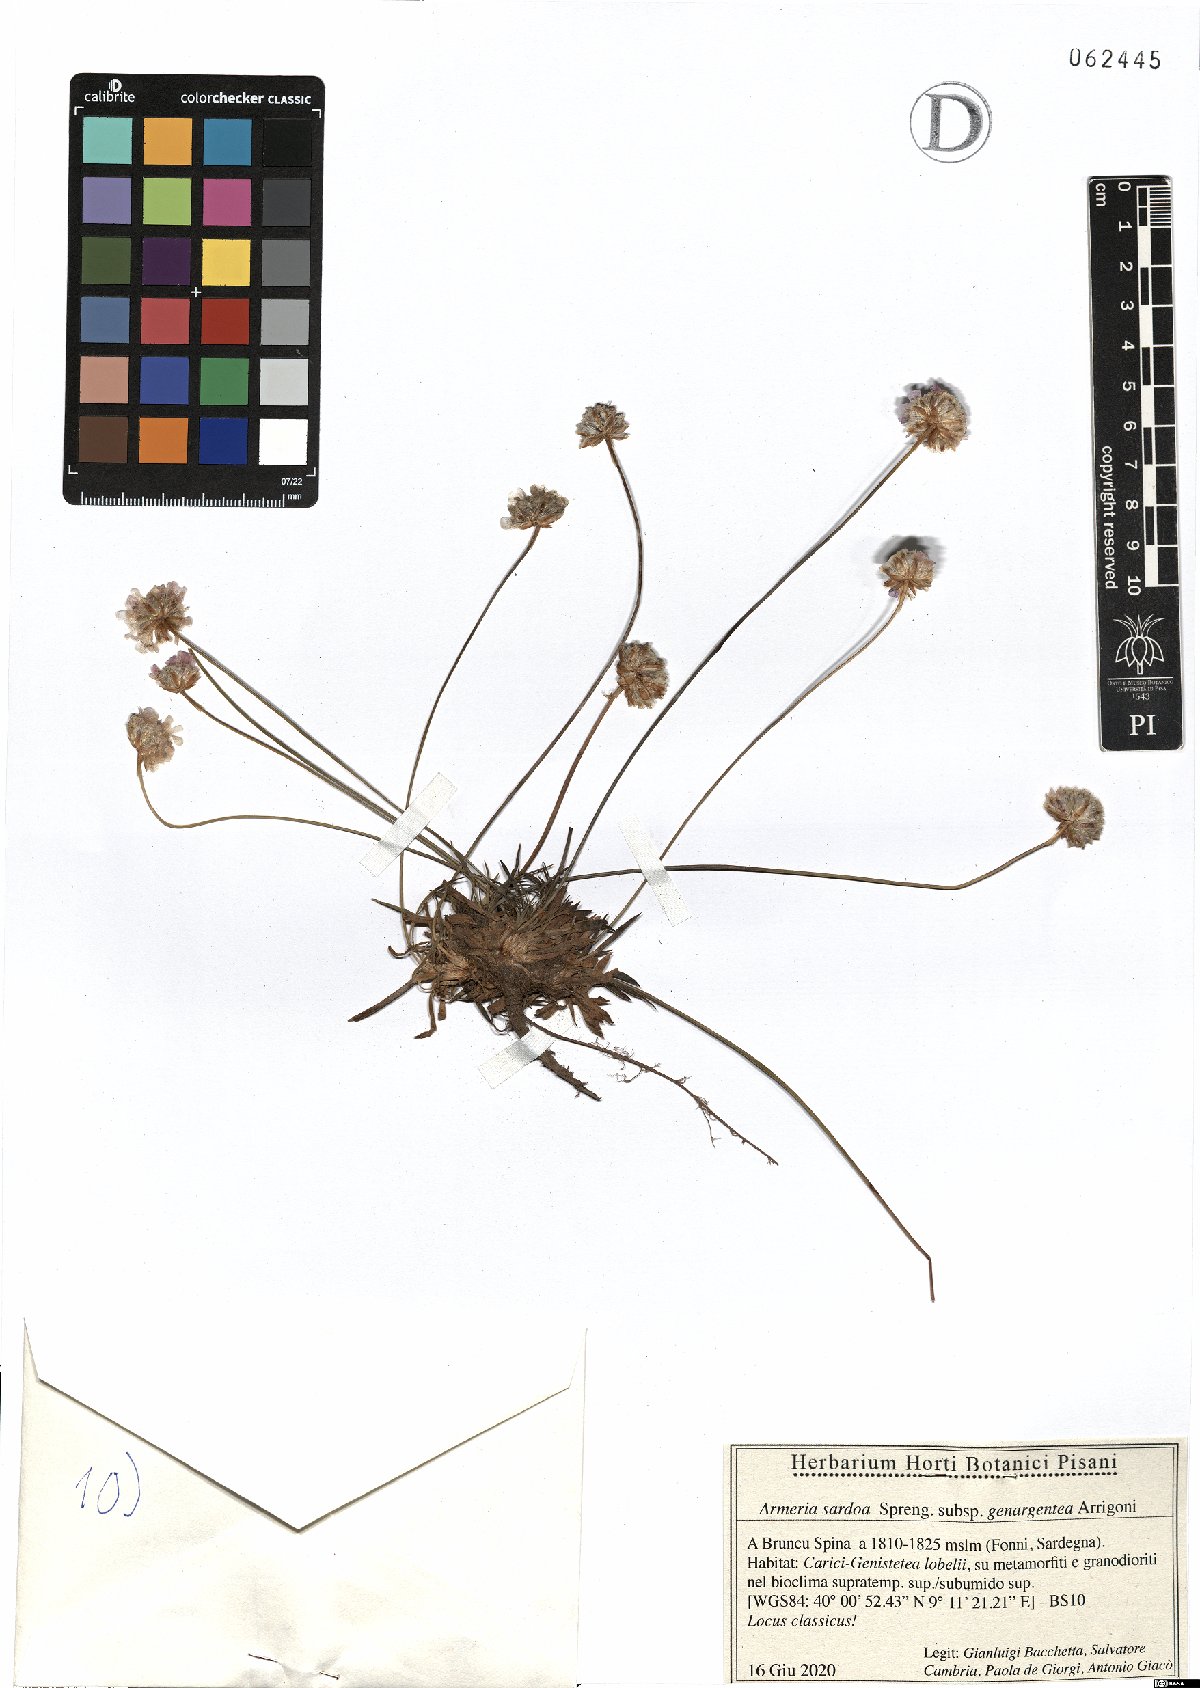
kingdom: Plantae
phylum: Tracheophyta
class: Magnoliopsida
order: Caryophyllales
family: Plumbaginaceae
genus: Armeria
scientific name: Armeria sardoa
